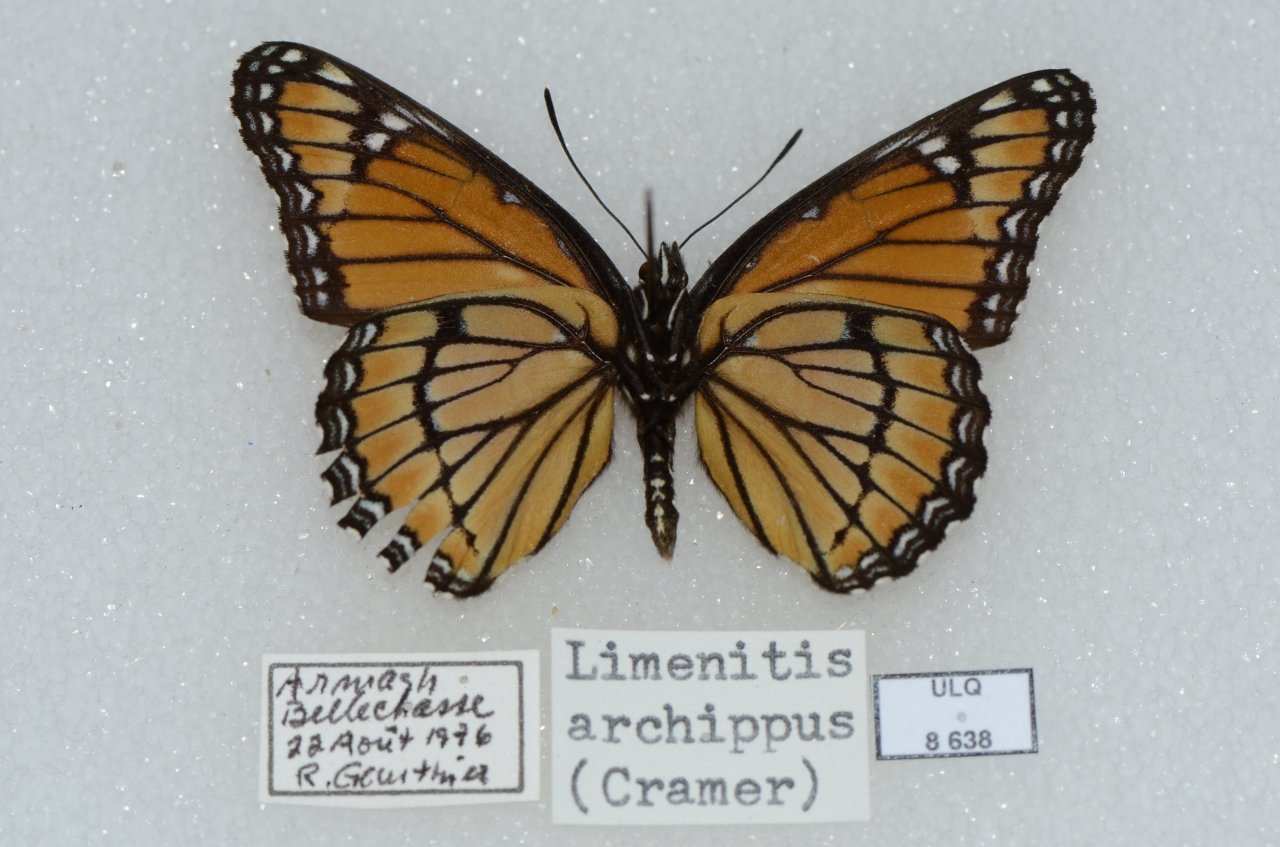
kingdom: Animalia
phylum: Arthropoda
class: Insecta
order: Lepidoptera
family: Nymphalidae
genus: Limenitis
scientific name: Limenitis archippus
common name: Viceroy
